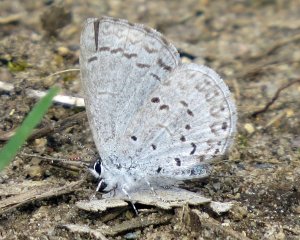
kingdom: Animalia
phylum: Arthropoda
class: Insecta
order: Lepidoptera
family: Lycaenidae
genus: Celastrina
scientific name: Celastrina ladon
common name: Spring Azure
